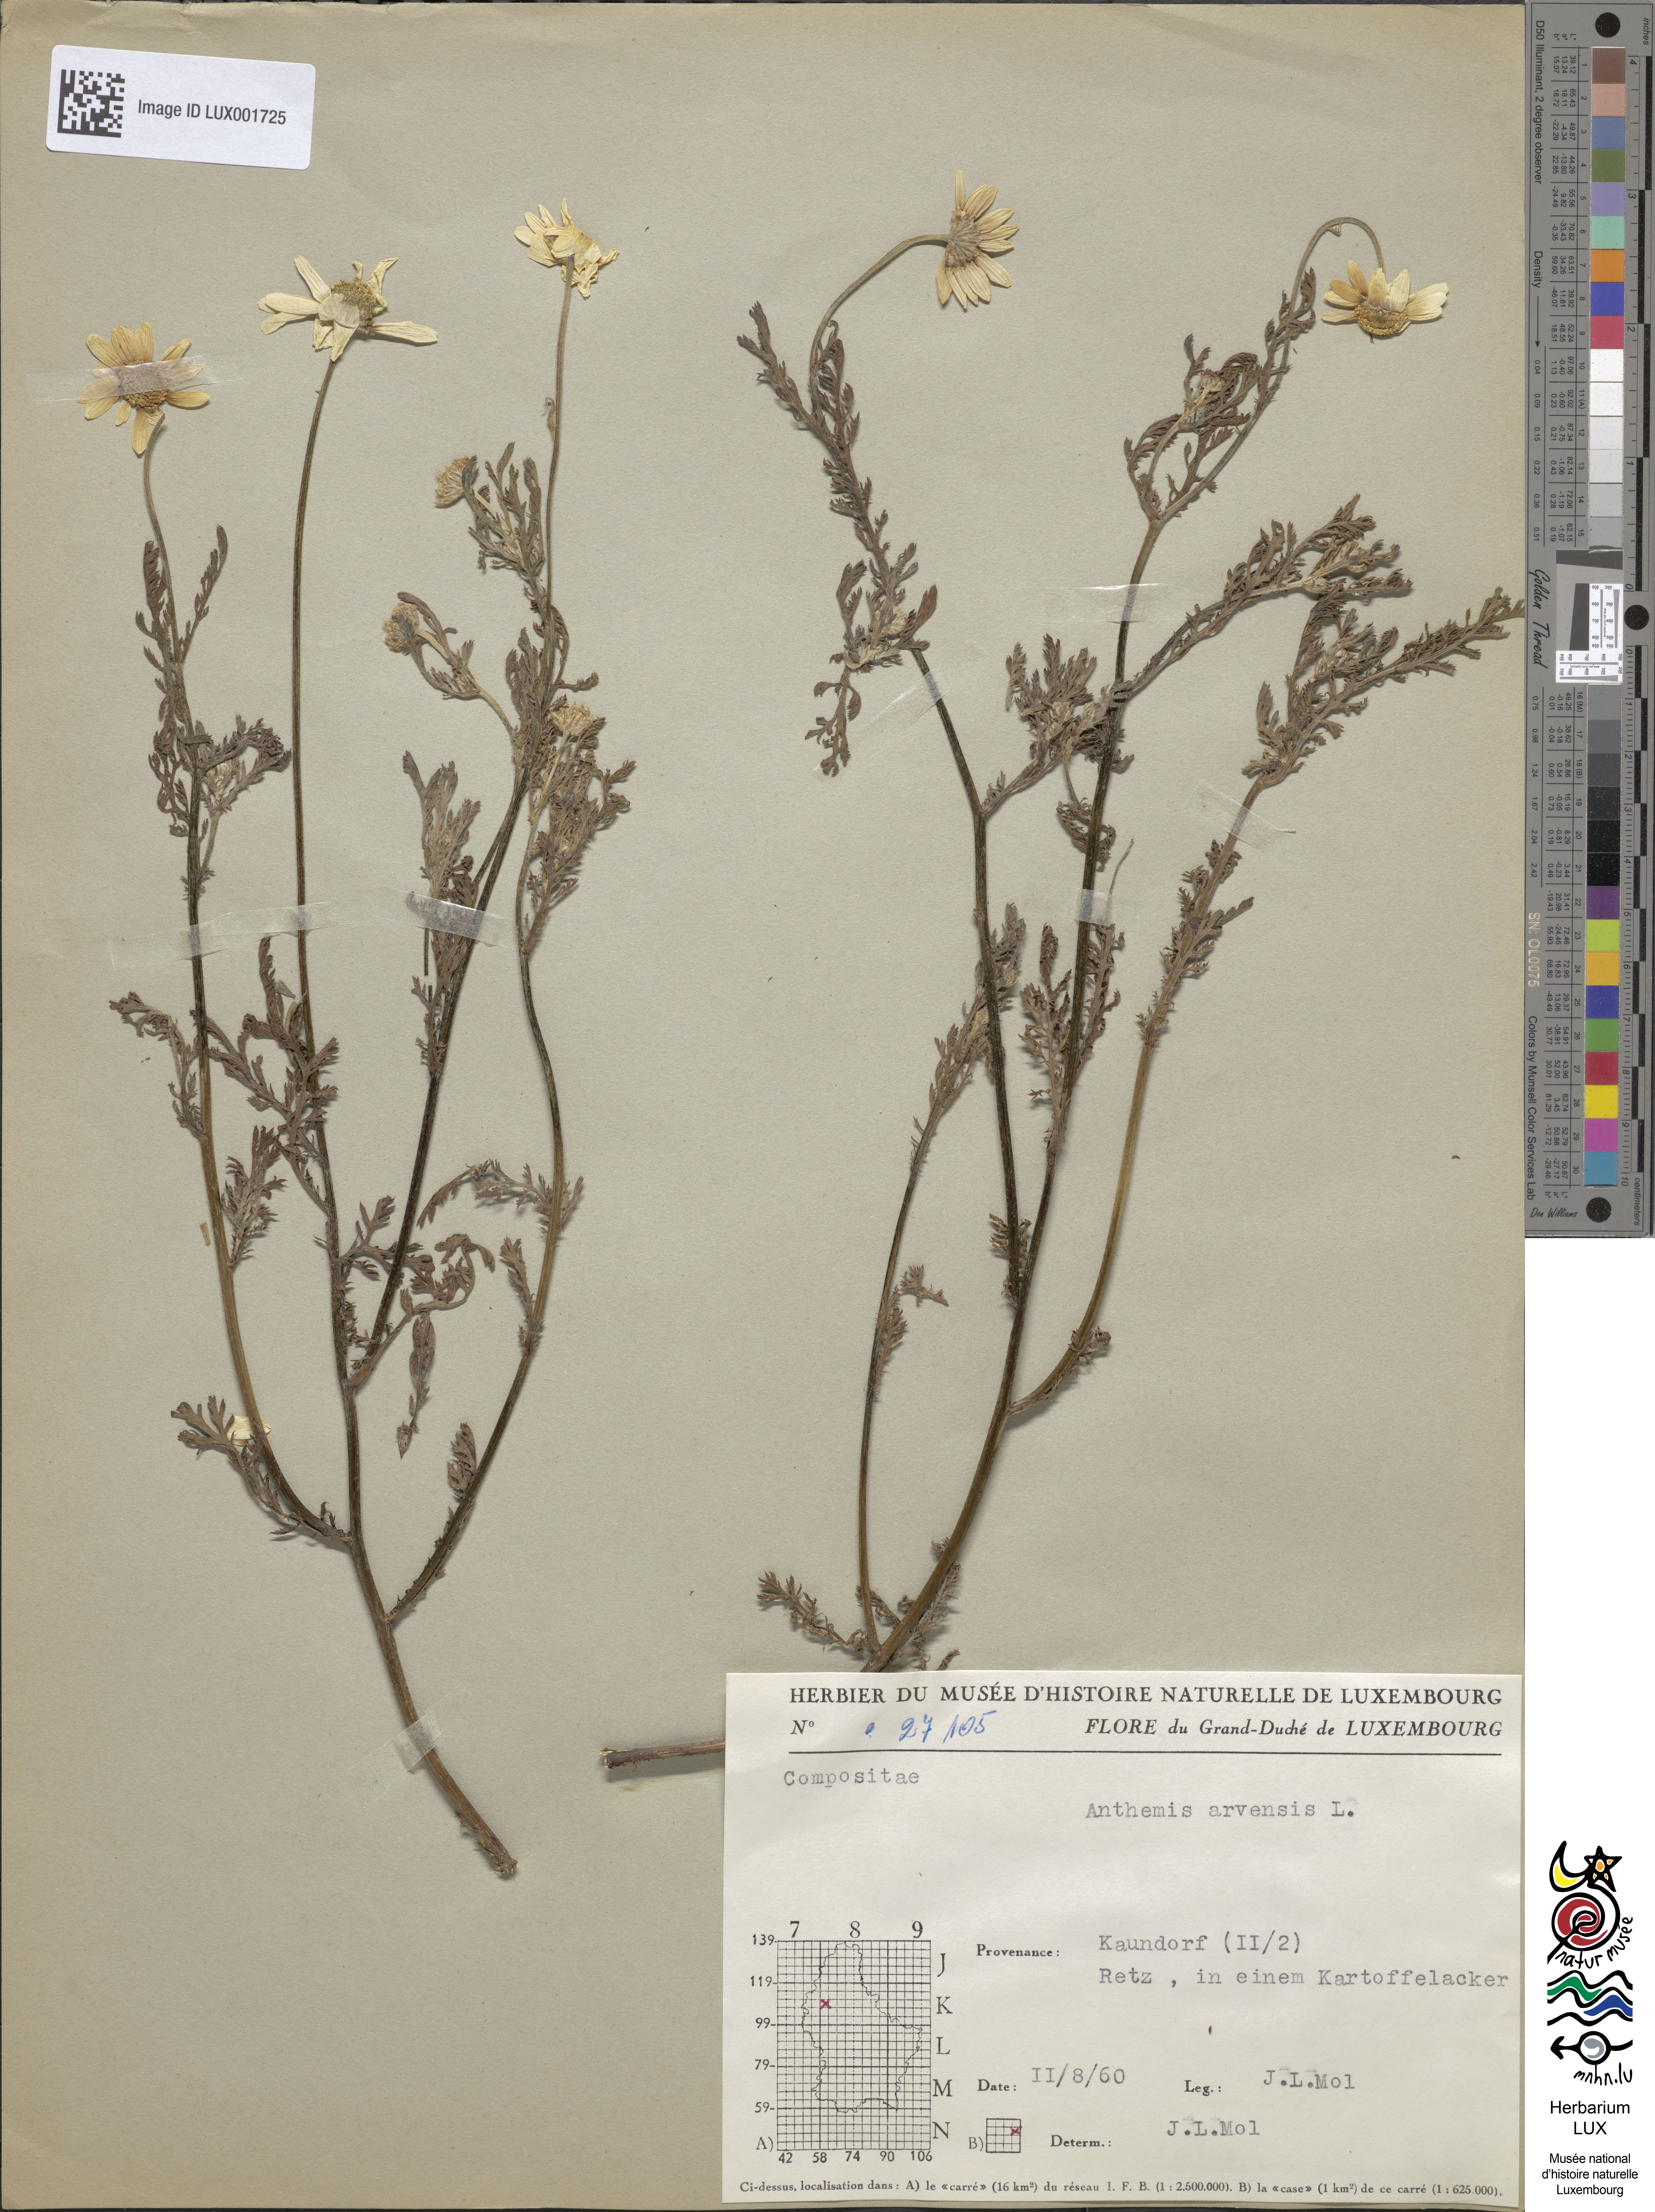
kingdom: Plantae
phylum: Tracheophyta
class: Magnoliopsida
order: Asterales
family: Asteraceae
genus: Anthemis
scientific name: Anthemis arvensis
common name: Corn chamomile
